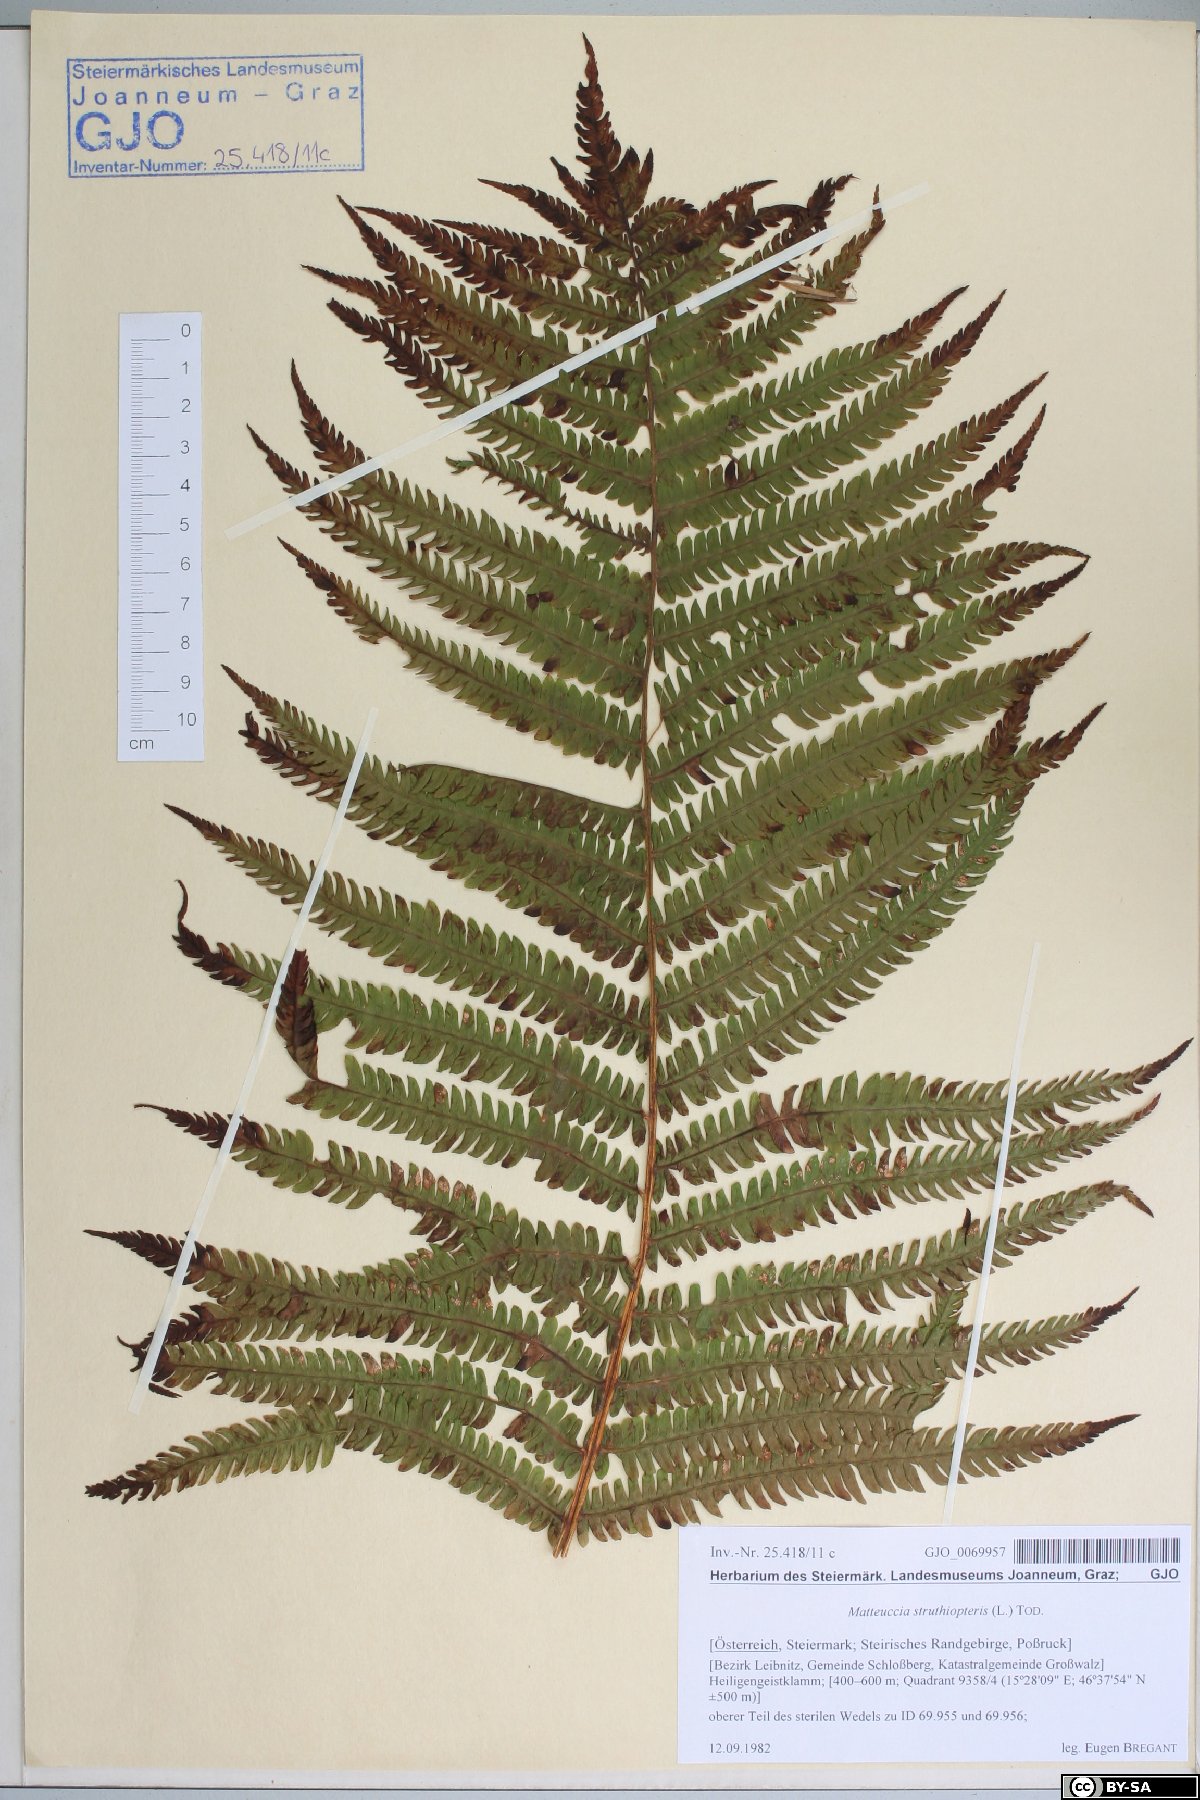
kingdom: Plantae
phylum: Tracheophyta
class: Polypodiopsida
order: Polypodiales
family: Onocleaceae
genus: Matteuccia
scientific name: Matteuccia struthiopteris
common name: Ostrich fern
